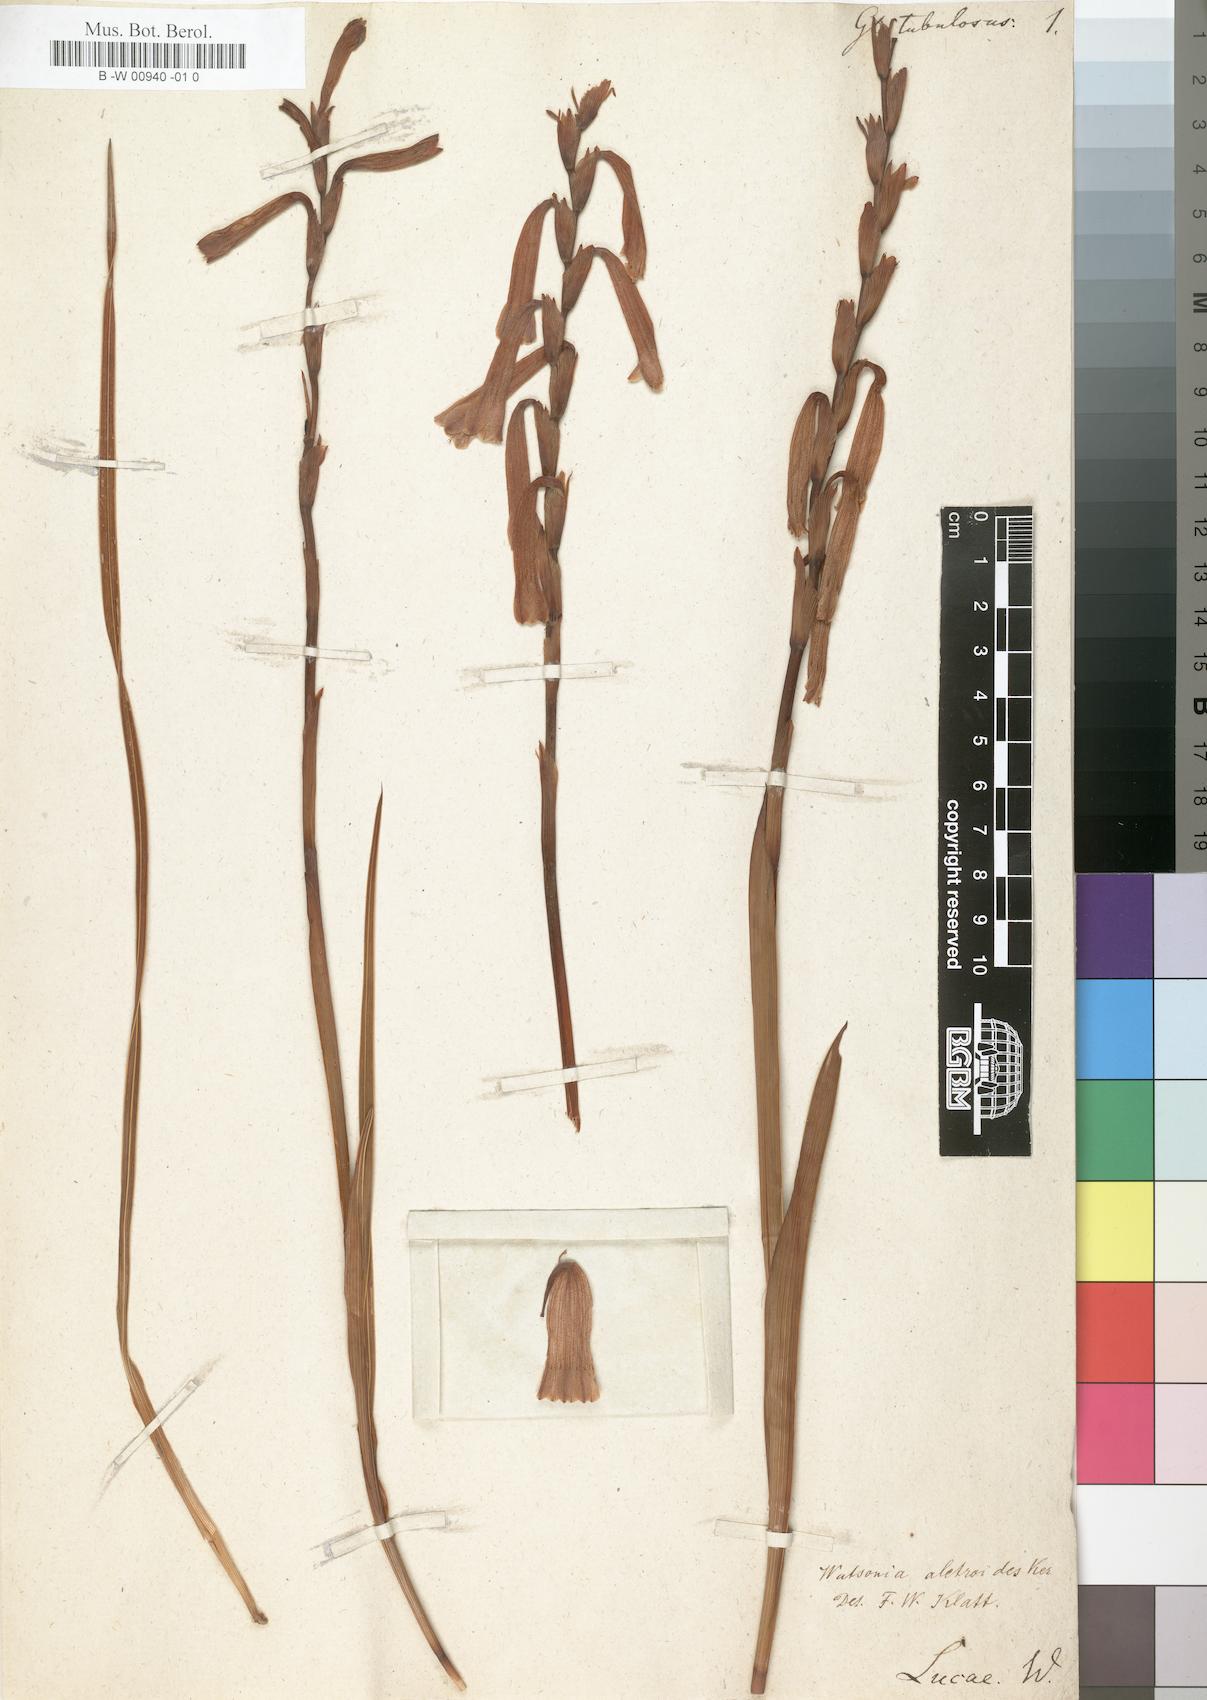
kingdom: Plantae
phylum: Tracheophyta
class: Liliopsida
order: Asparagales
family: Iridaceae
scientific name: Iridaceae
